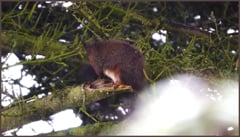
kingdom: Animalia
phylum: Chordata
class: Mammalia
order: Rodentia
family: Sciuridae
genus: Sciurus
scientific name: Sciurus vulgaris
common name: Eurasian red squirrel
